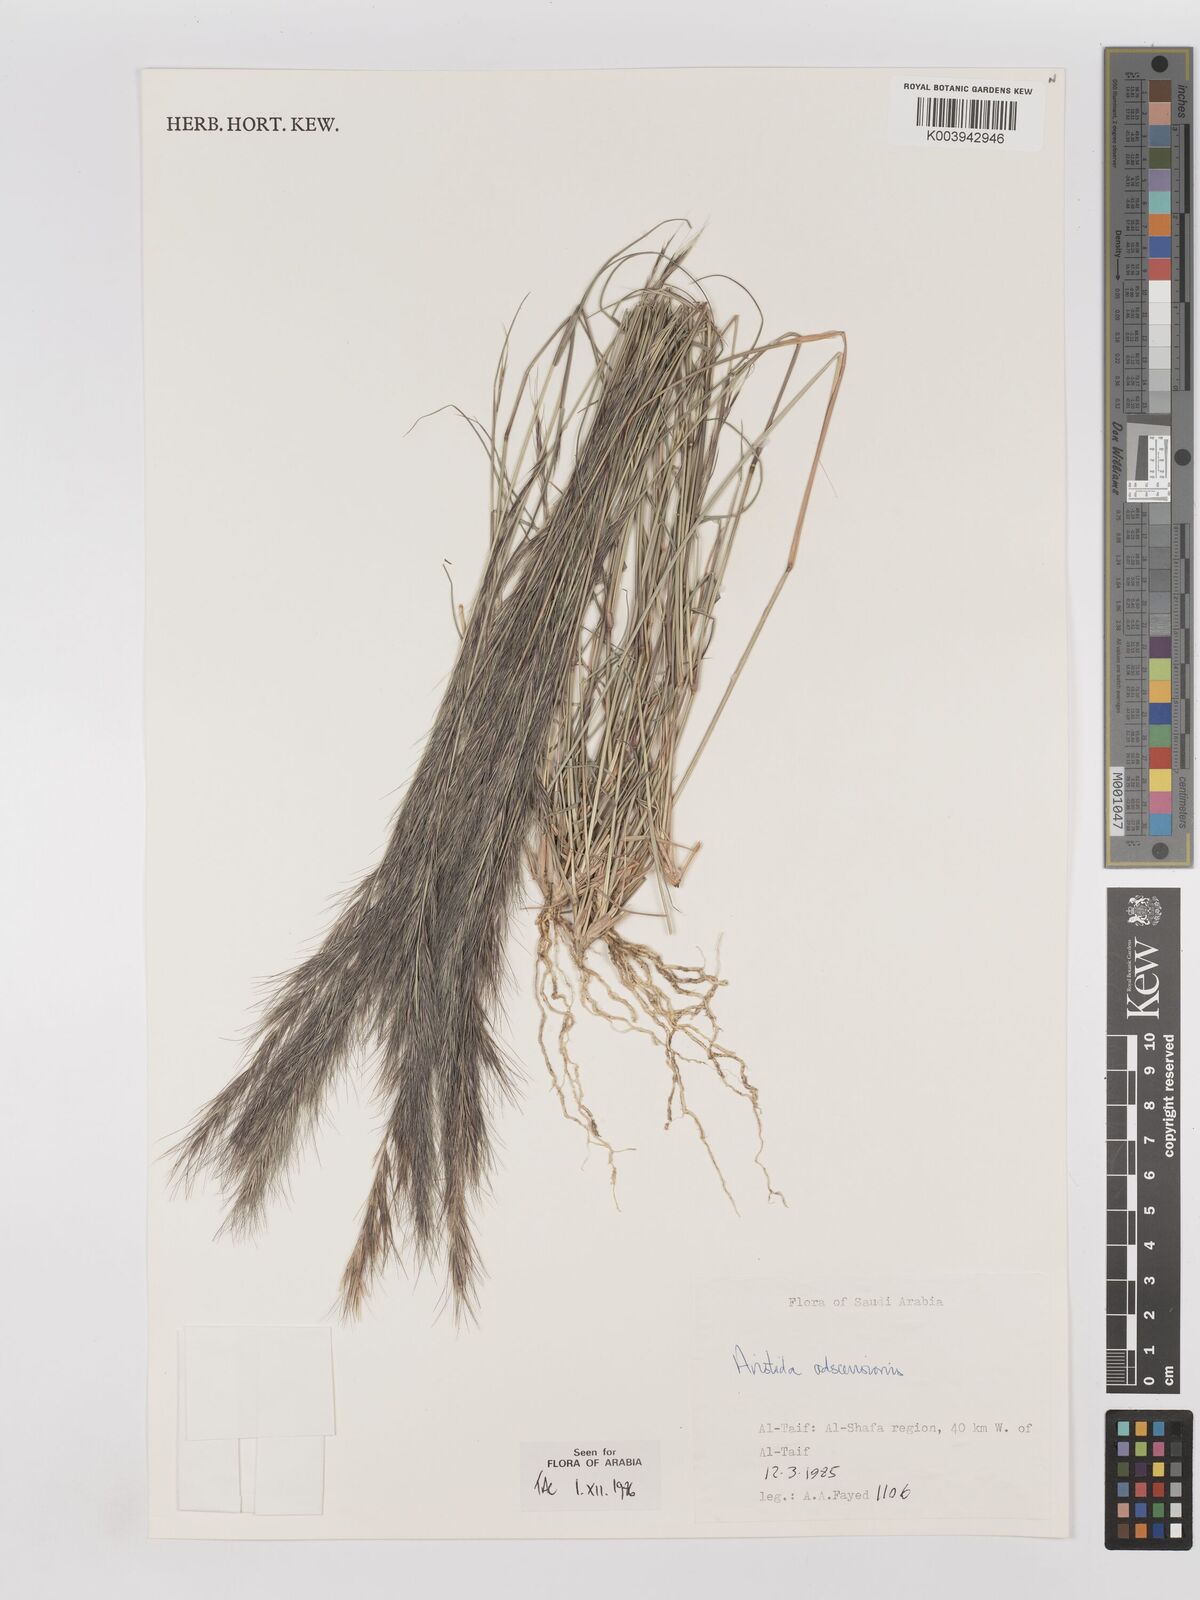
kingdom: Plantae
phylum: Tracheophyta
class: Liliopsida
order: Poales
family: Poaceae
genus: Aristida
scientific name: Aristida adscensionis
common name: Sixweeks threeawn
